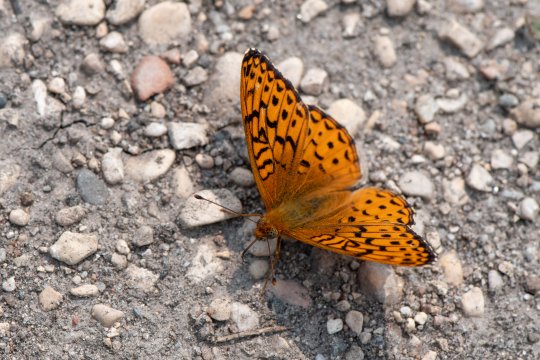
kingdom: Animalia
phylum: Arthropoda
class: Insecta
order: Lepidoptera
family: Nymphalidae
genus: Speyeria
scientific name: Speyeria atlantis
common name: Northwestern Fritillary
